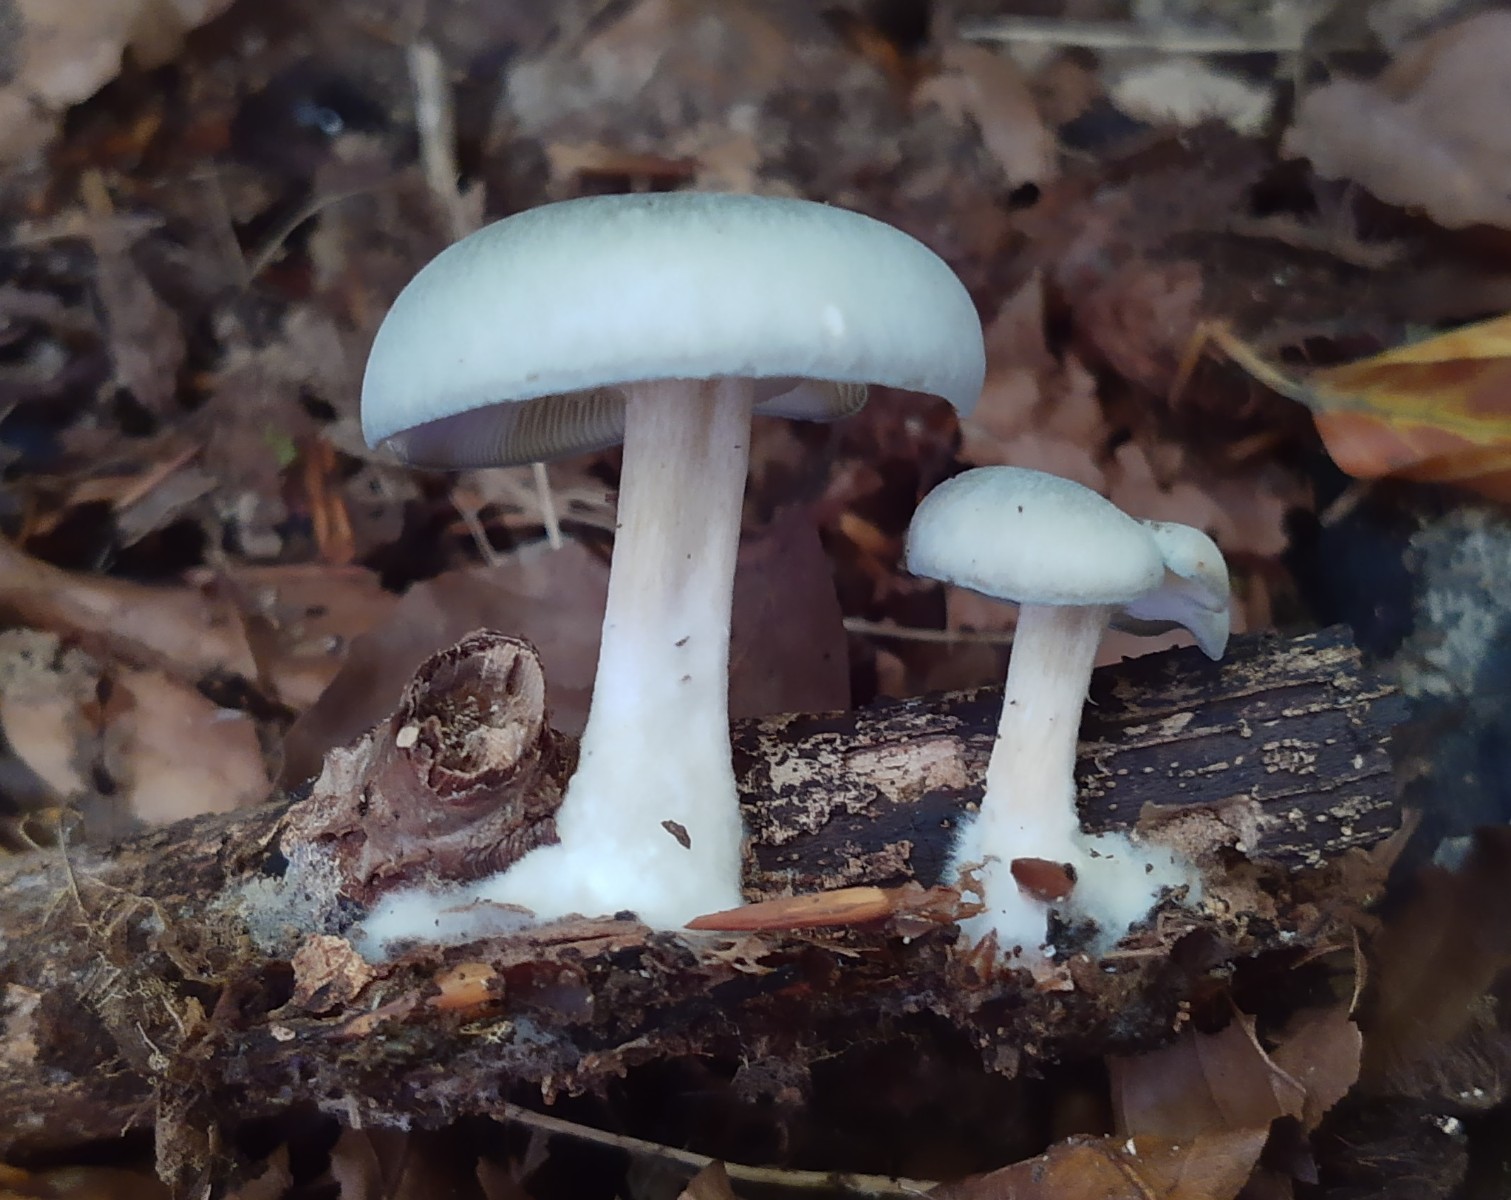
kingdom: Fungi
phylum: Basidiomycota
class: Agaricomycetes
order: Agaricales
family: Tricholomataceae
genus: Clitocybe
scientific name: Clitocybe odora
